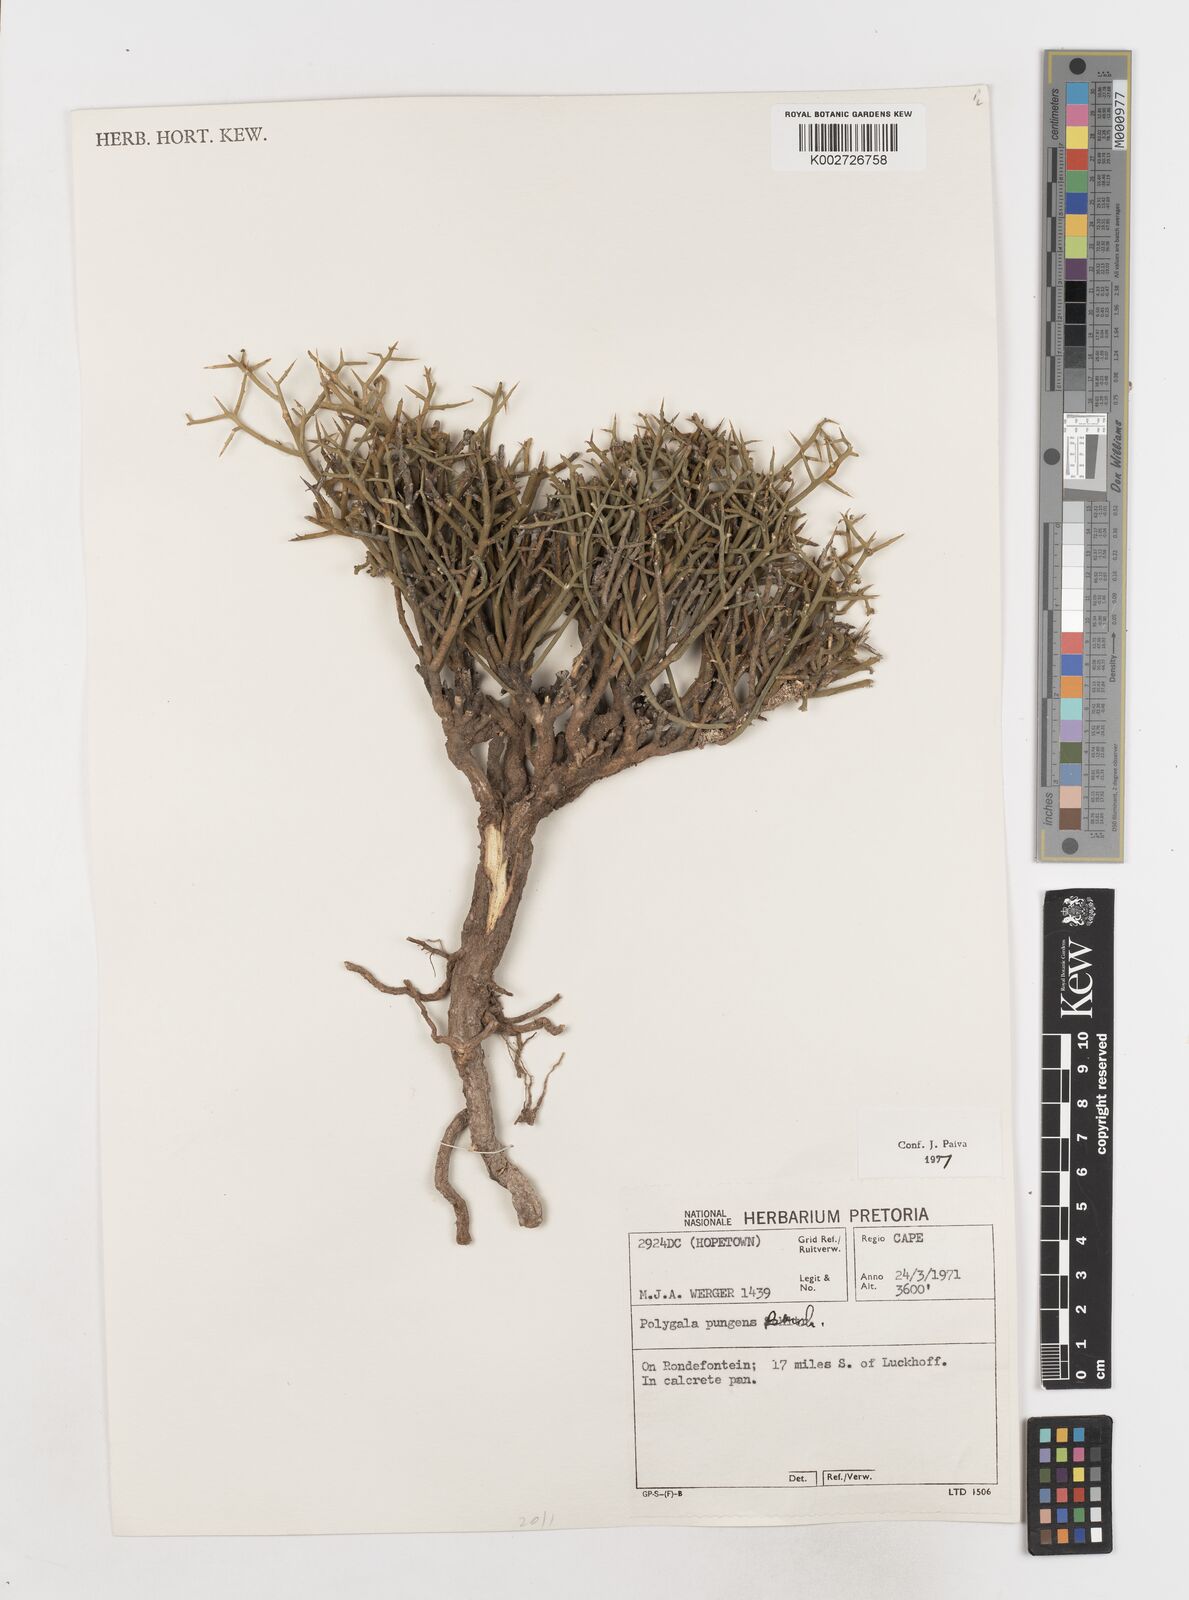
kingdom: Plantae
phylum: Tracheophyta
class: Magnoliopsida
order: Fabales
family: Polygalaceae
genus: Polygala
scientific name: Polygala pungens
